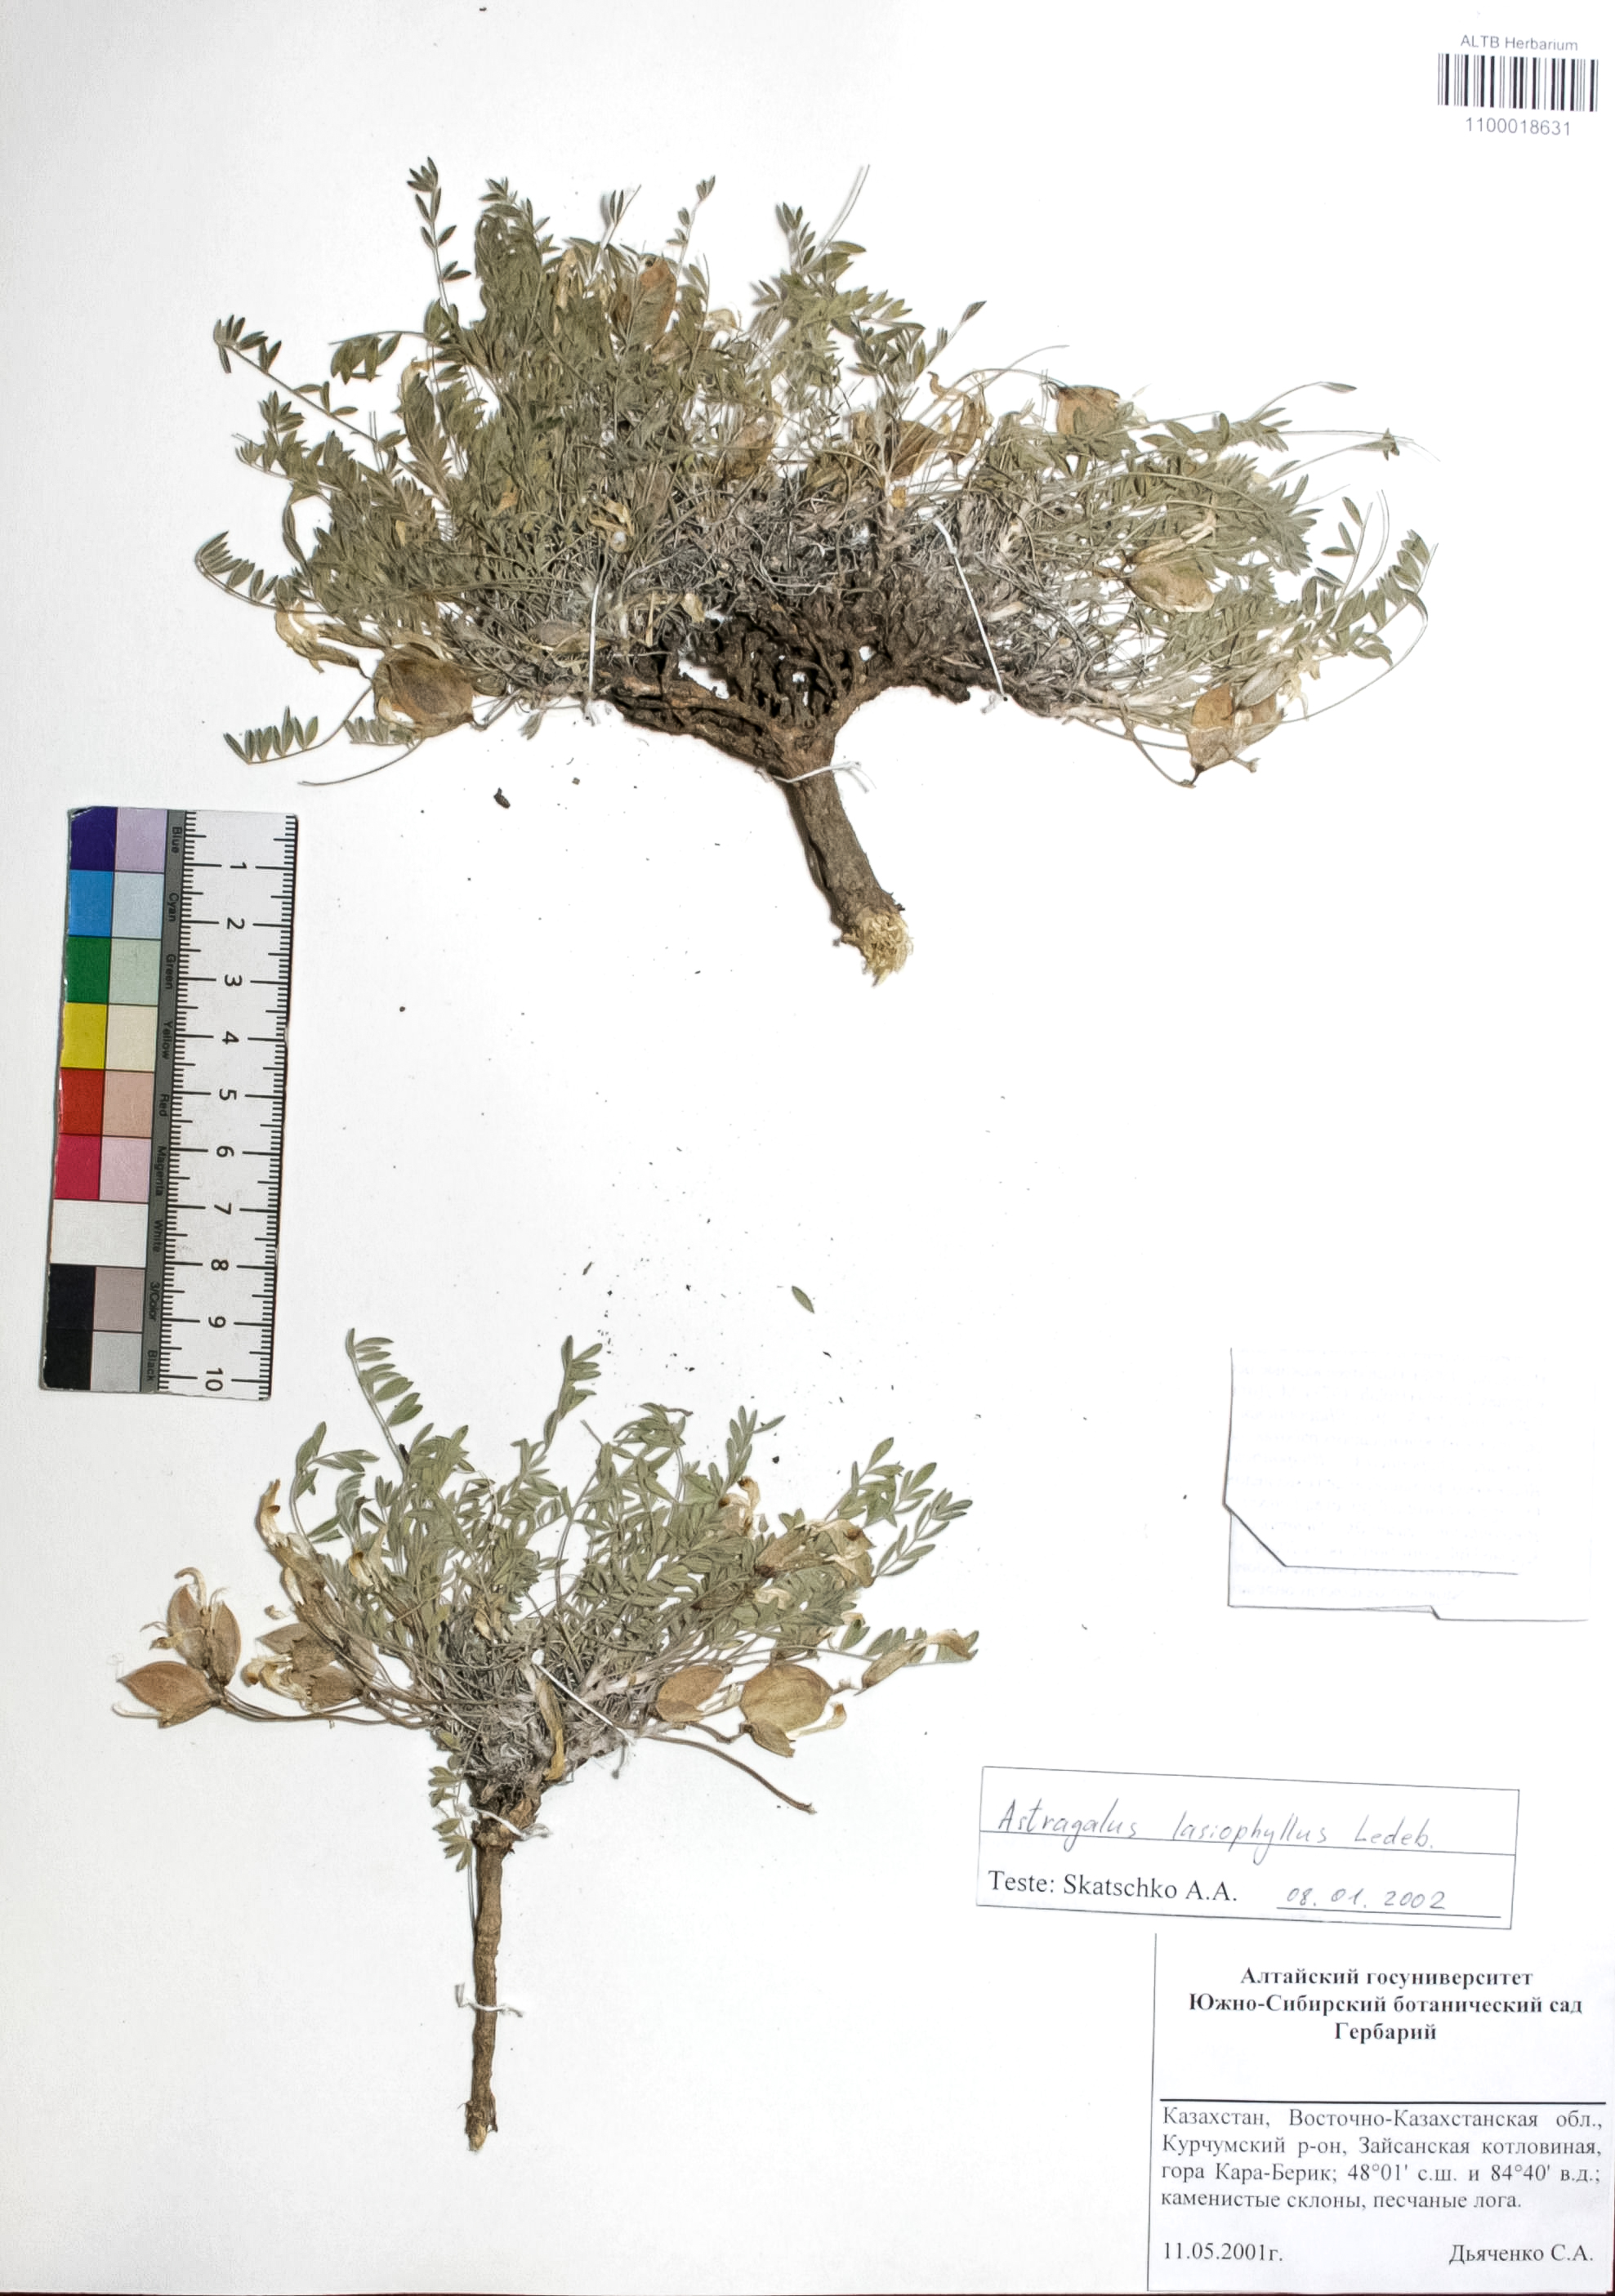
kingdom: Plantae
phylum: Tracheophyta
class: Magnoliopsida
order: Fabales
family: Fabaceae
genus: Astragalus
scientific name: Astragalus pallasii
